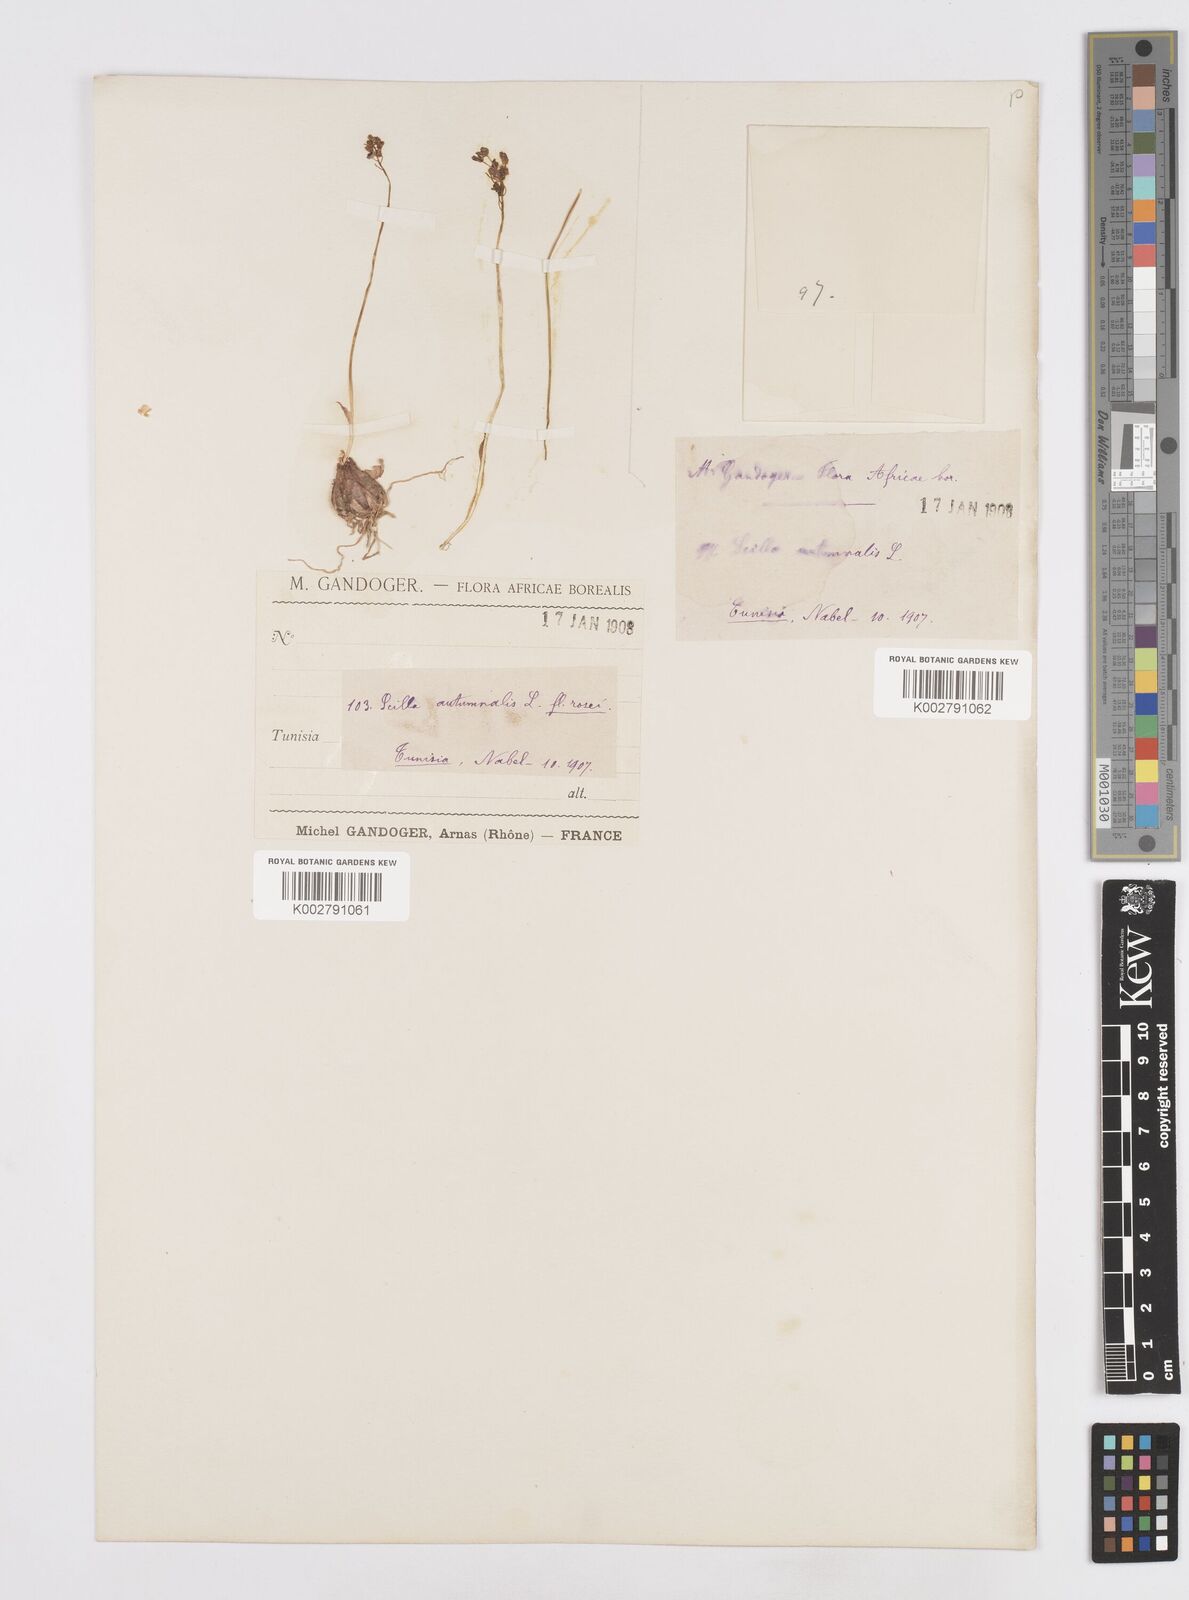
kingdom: Plantae
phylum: Tracheophyta
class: Liliopsida
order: Asparagales
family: Asparagaceae
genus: Prospero
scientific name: Prospero autumnale
